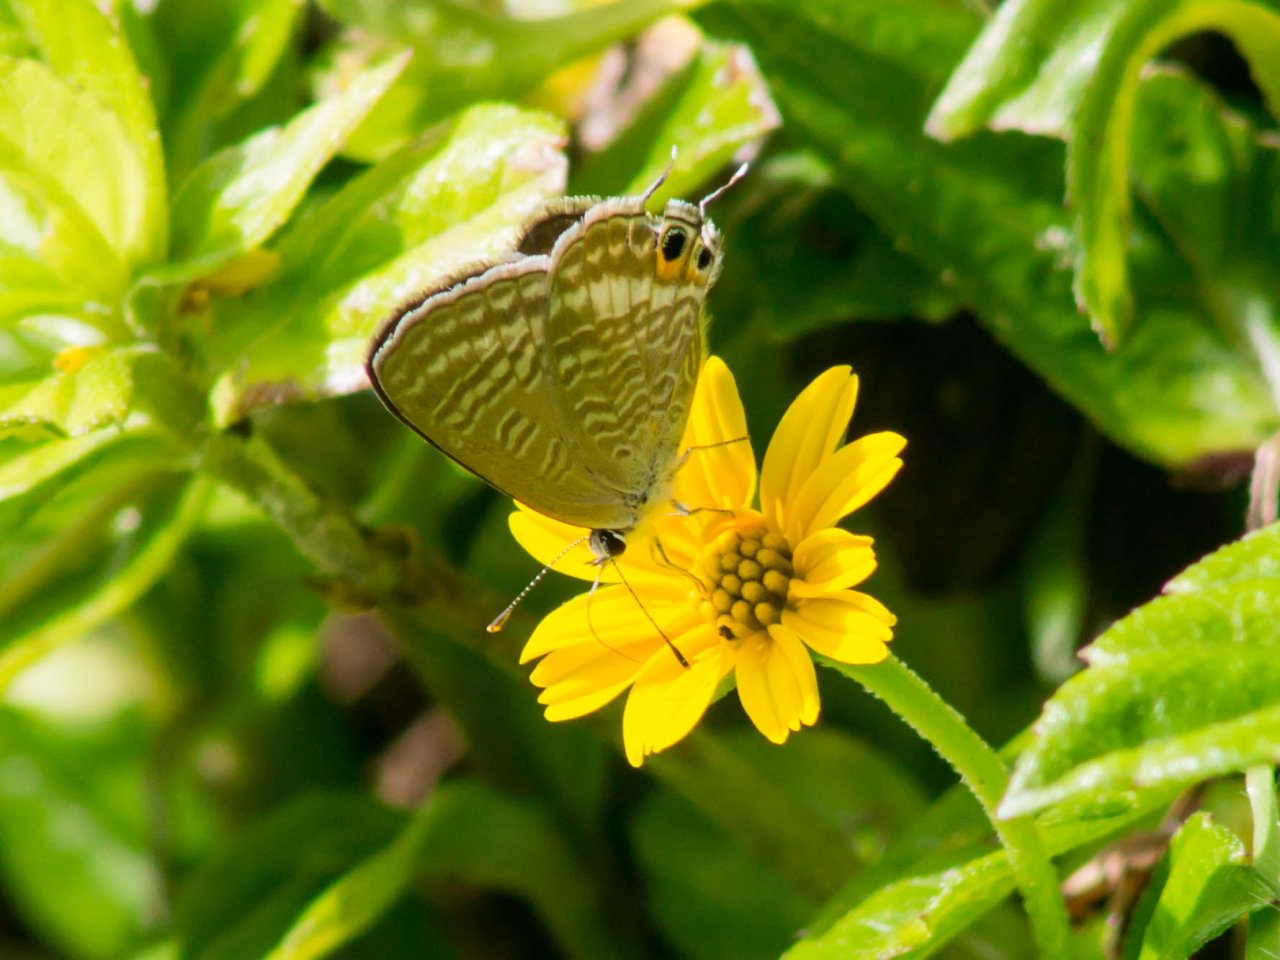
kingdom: Animalia
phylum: Arthropoda
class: Insecta
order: Lepidoptera
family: Lycaenidae
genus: Lampides
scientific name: Lampides boeticus
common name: Pea Blue
